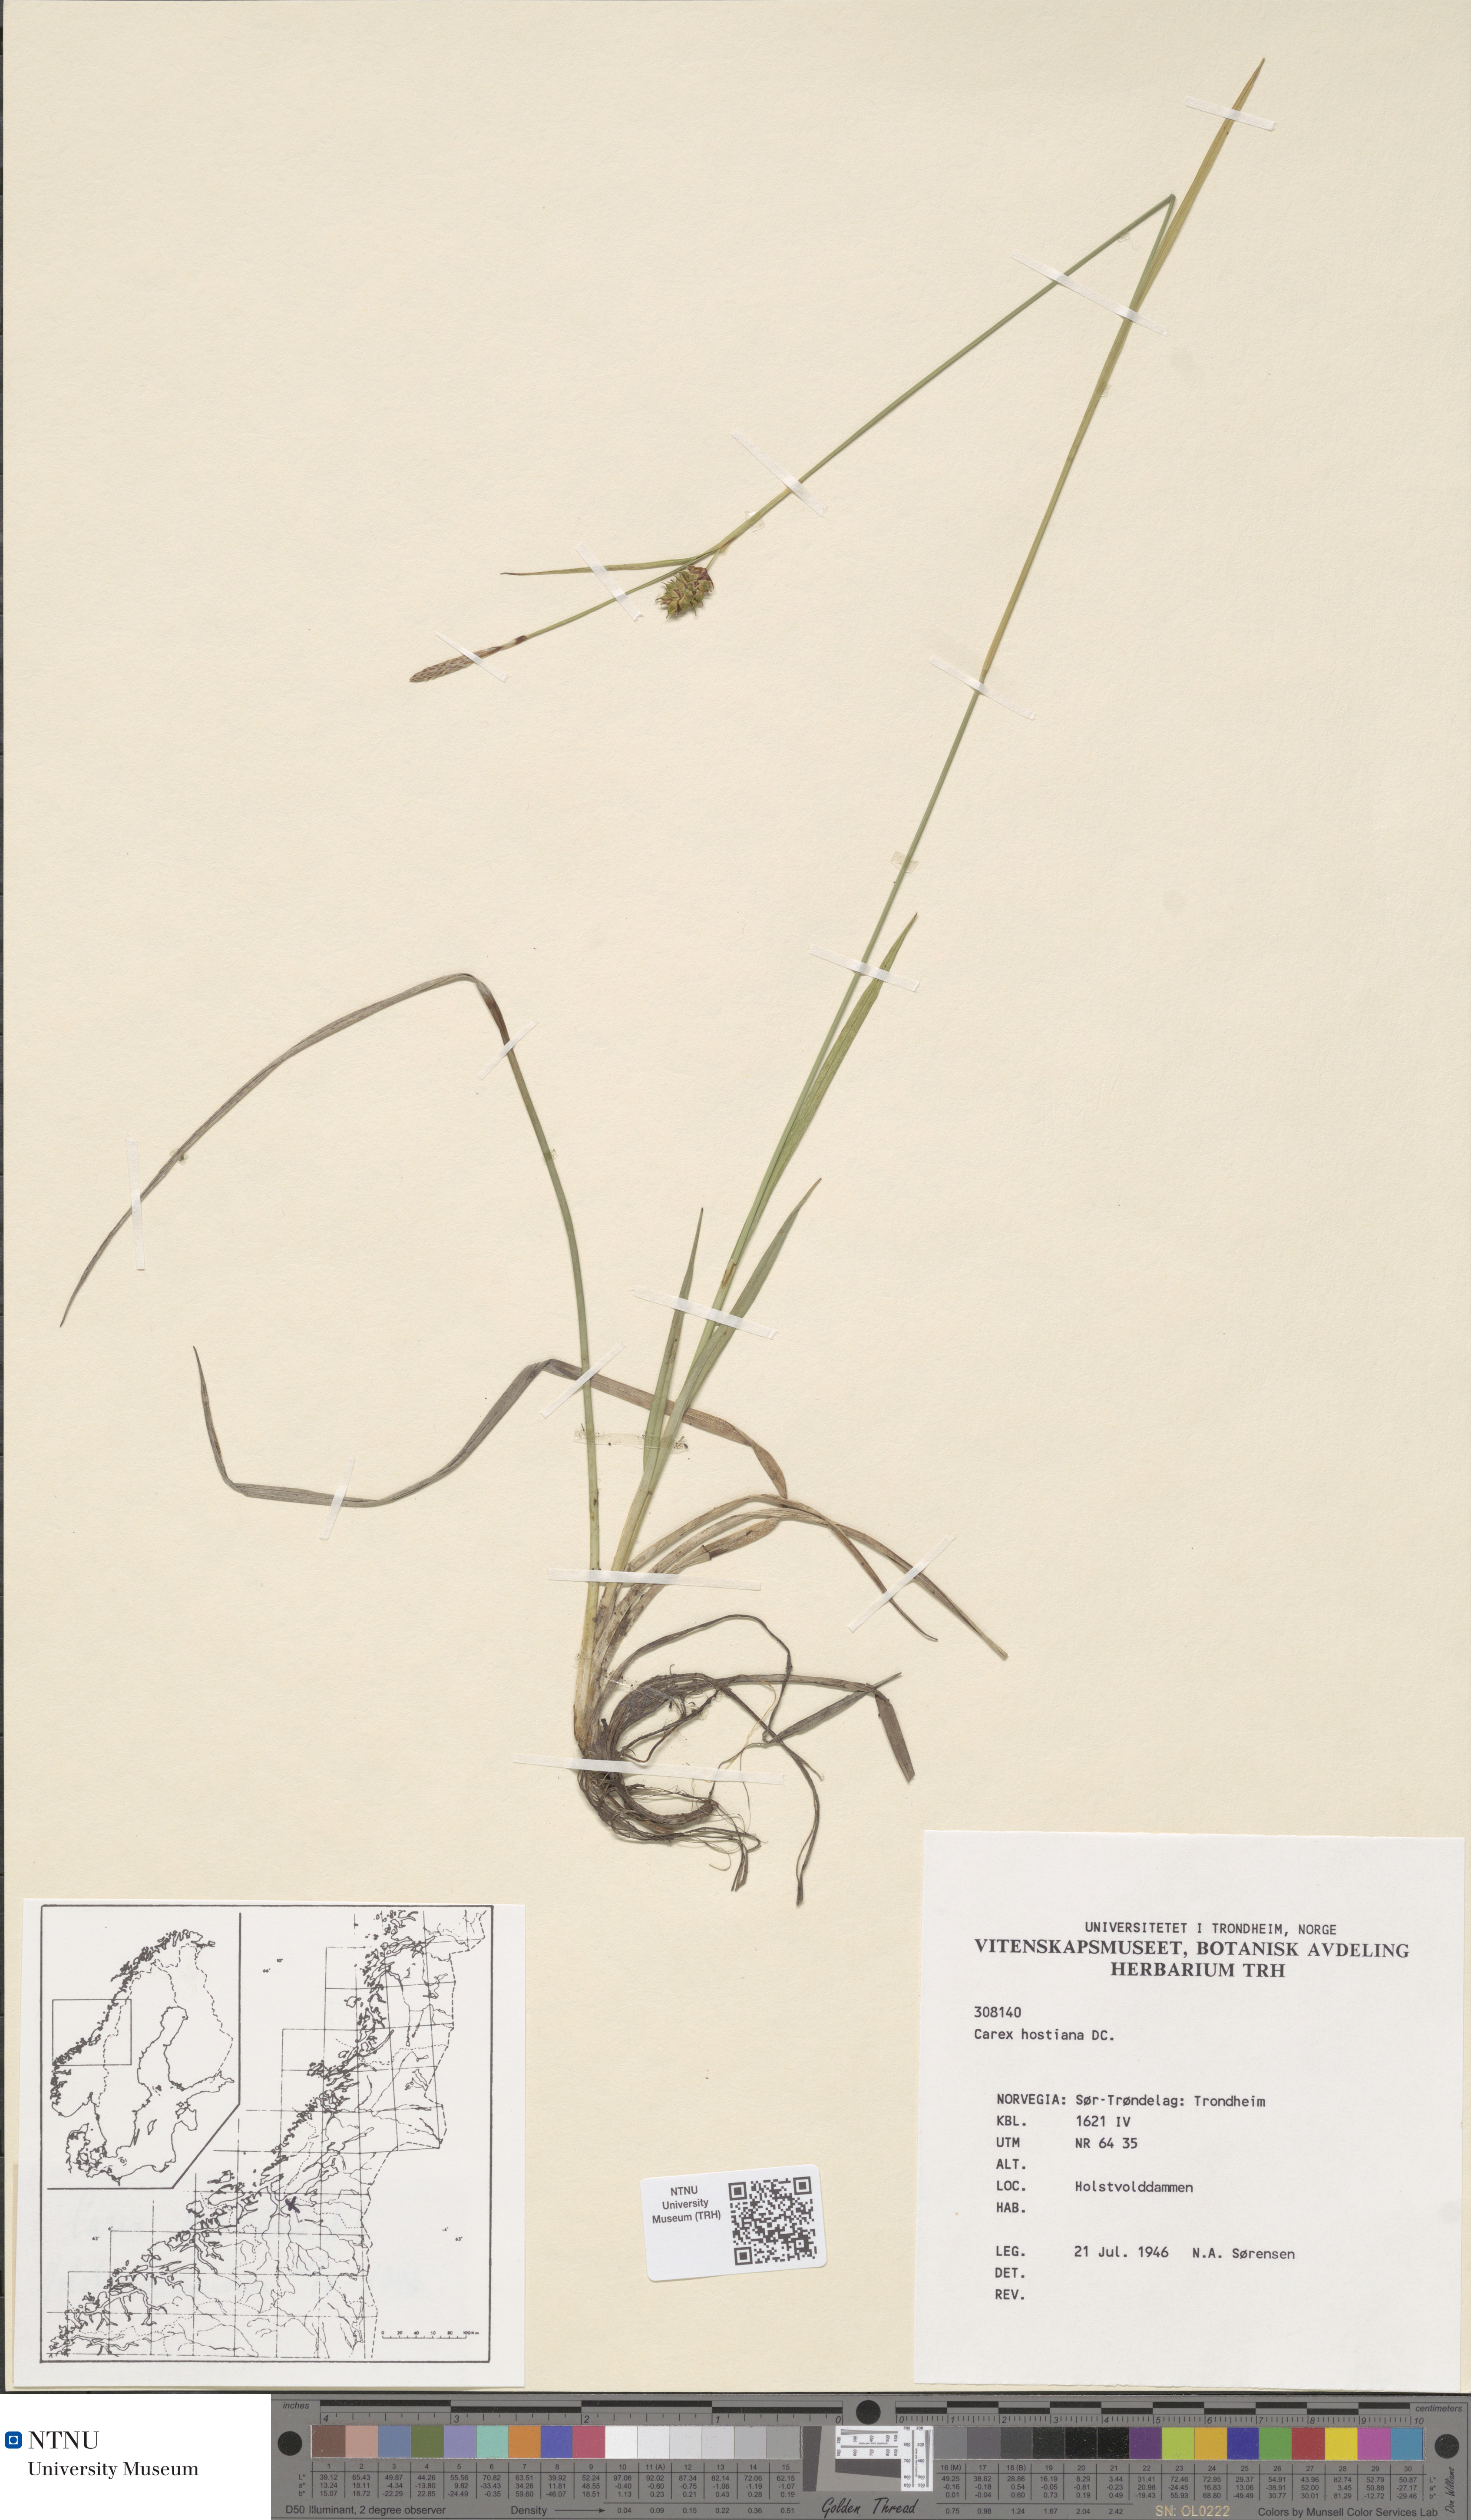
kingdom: Plantae
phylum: Tracheophyta
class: Liliopsida
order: Poales
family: Cyperaceae
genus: Carex
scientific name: Carex hostiana
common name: Tawny sedge
